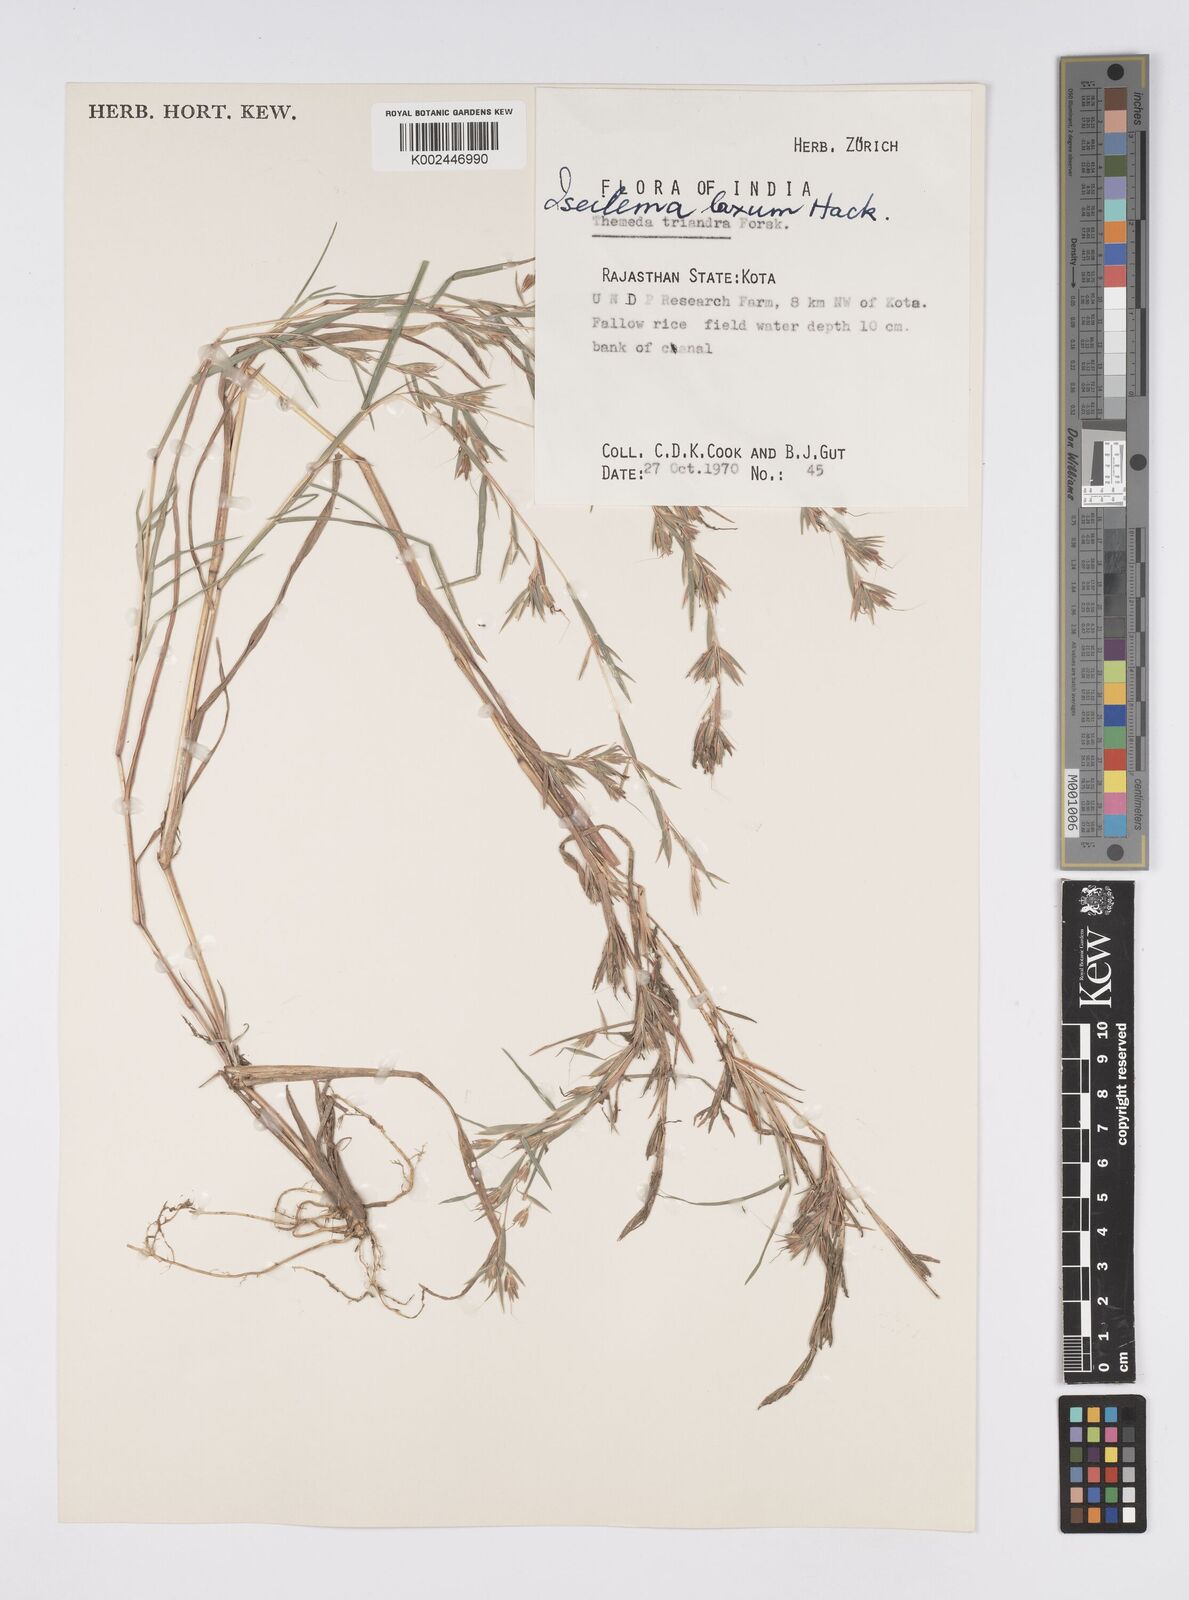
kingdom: Plantae
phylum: Tracheophyta
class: Liliopsida
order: Poales
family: Poaceae
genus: Iseilema
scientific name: Iseilema prostratum
